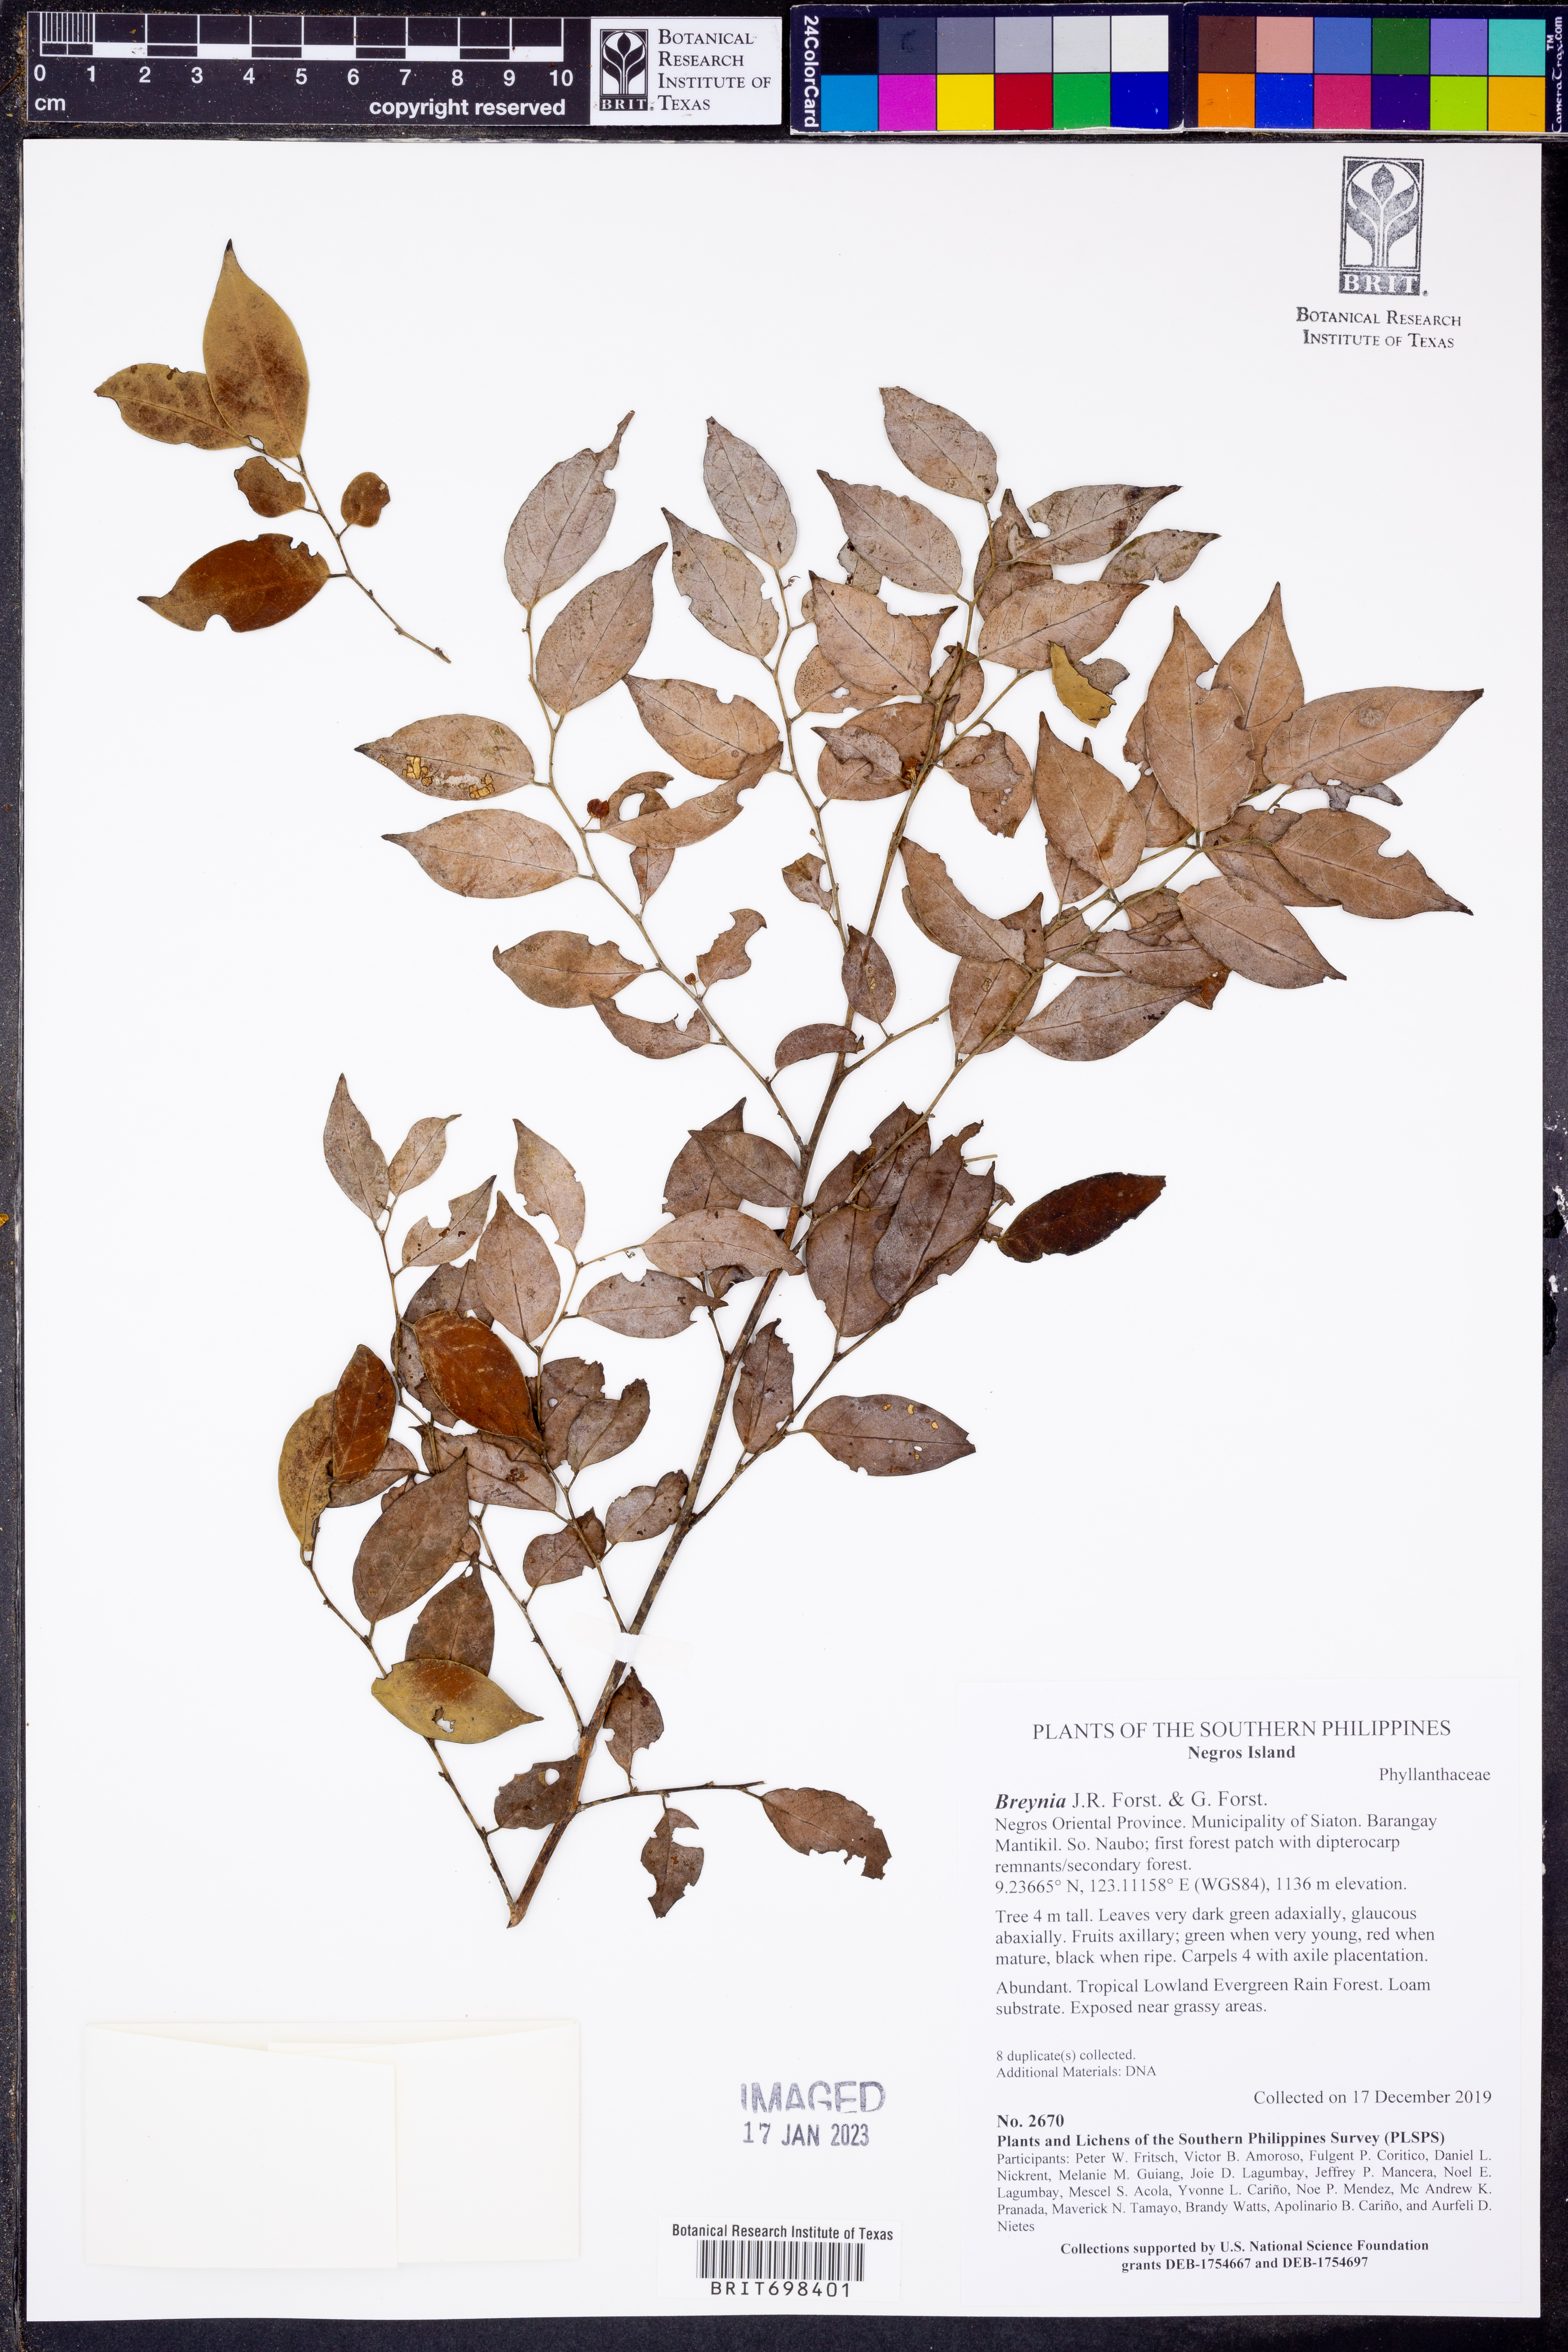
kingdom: Plantae
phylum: Tracheophyta
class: Magnoliopsida
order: Malpighiales
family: Phyllanthaceae
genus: Breynia
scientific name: Breynia
